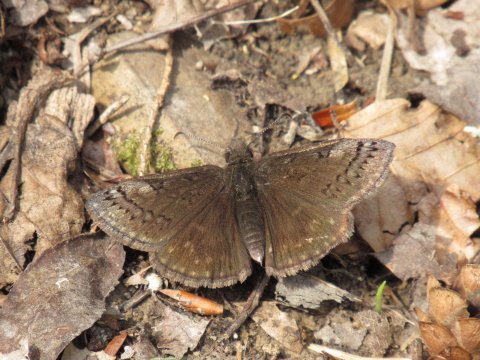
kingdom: Animalia
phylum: Arthropoda
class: Insecta
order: Lepidoptera
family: Hesperiidae
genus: Erynnis
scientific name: Erynnis brizo
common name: Sleepy Duskywing
